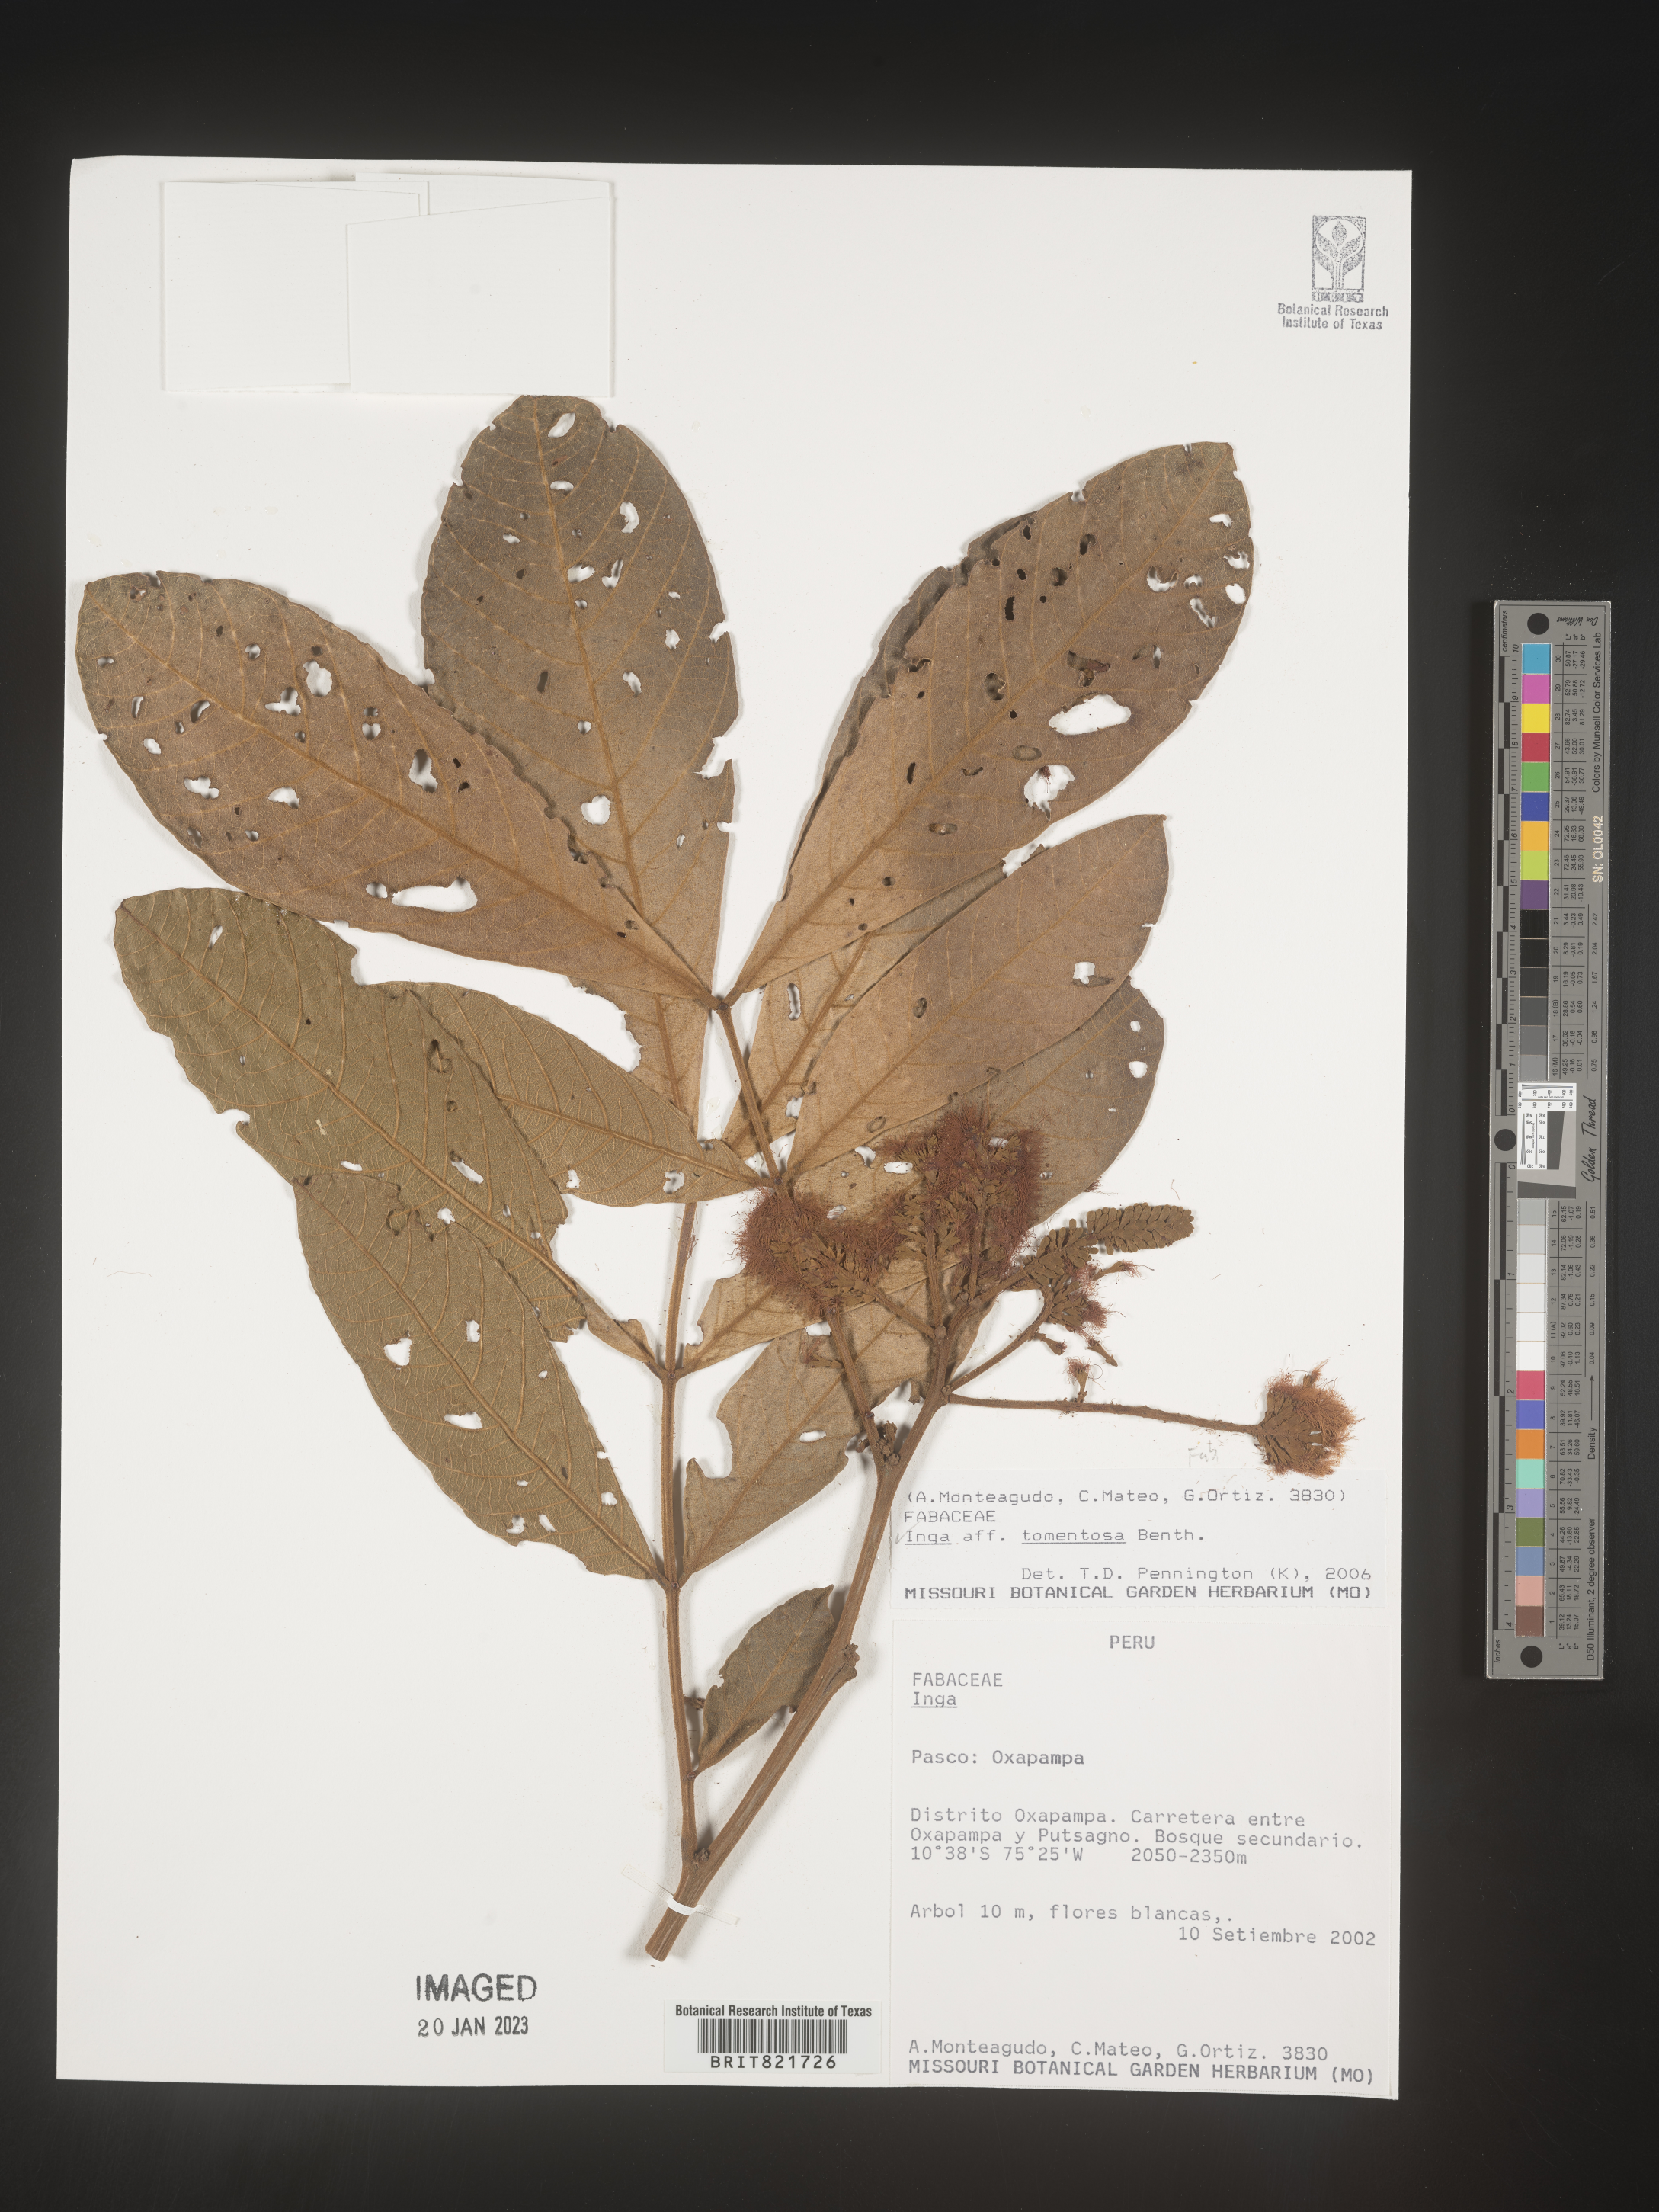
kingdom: Plantae
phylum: Tracheophyta
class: Magnoliopsida
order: Fabales
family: Fabaceae
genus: Inga
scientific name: Inga
